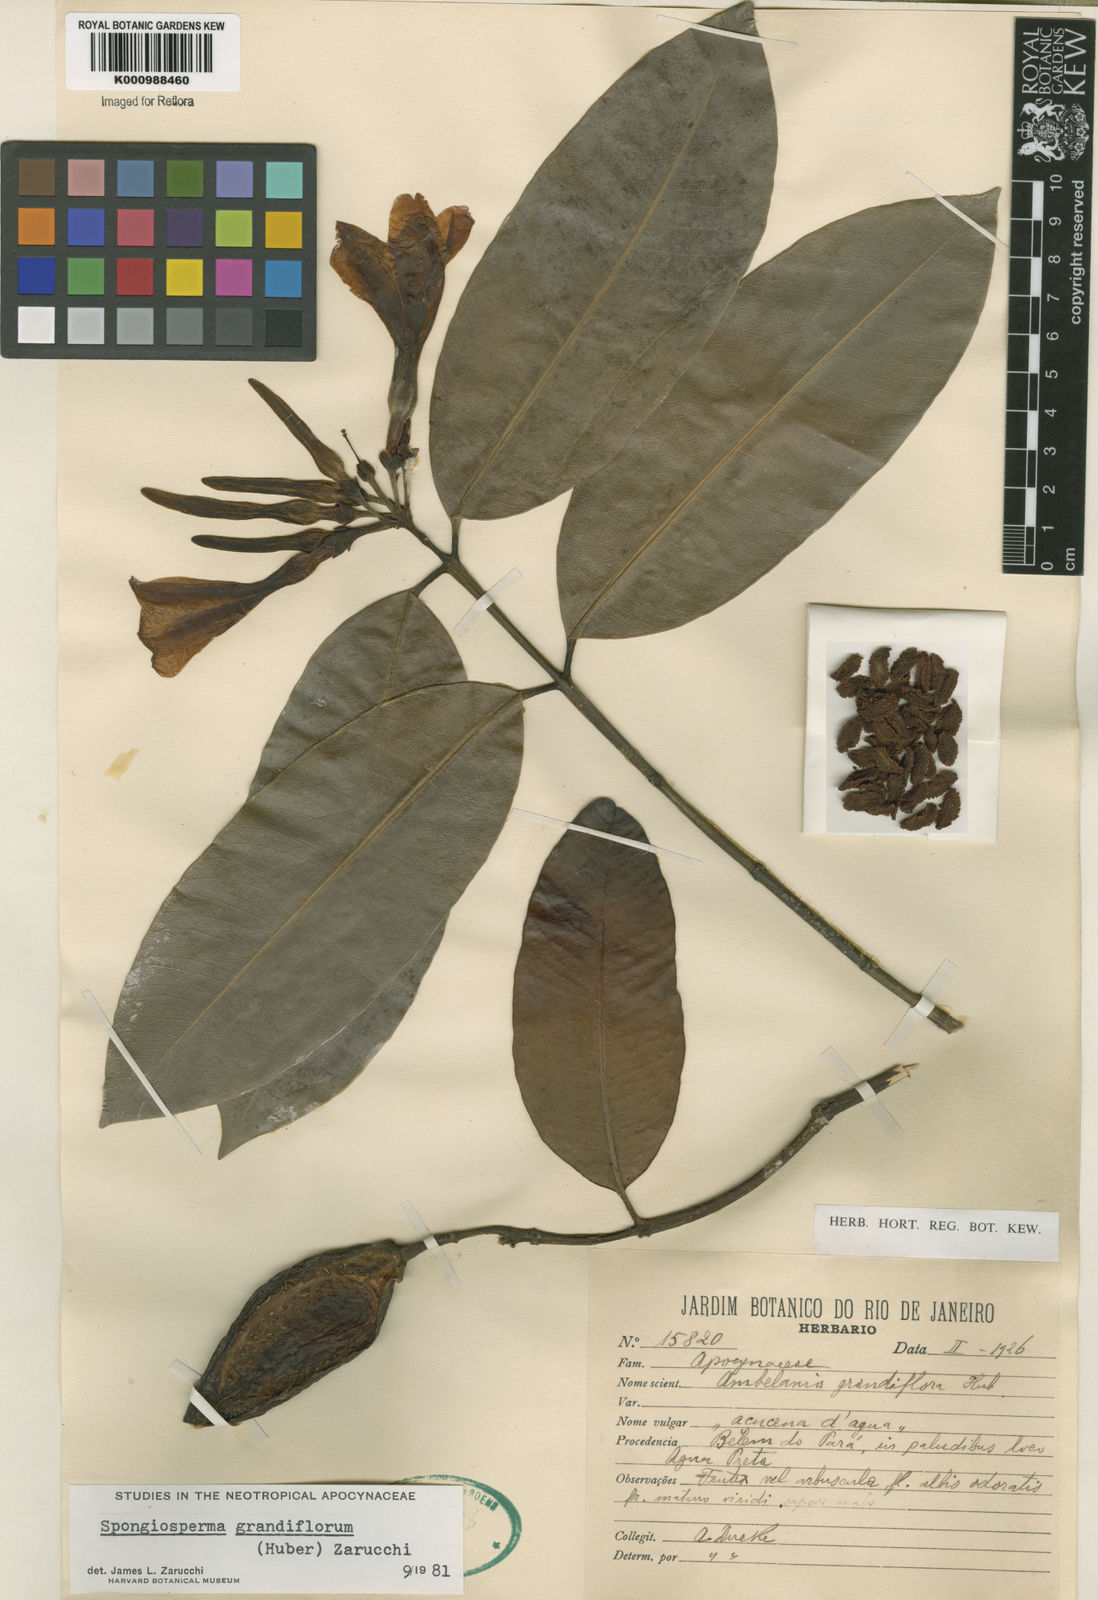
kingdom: Plantae
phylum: Tracheophyta
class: Magnoliopsida
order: Gentianales
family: Apocynaceae
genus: Aspidosperma
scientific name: Aspidosperma
